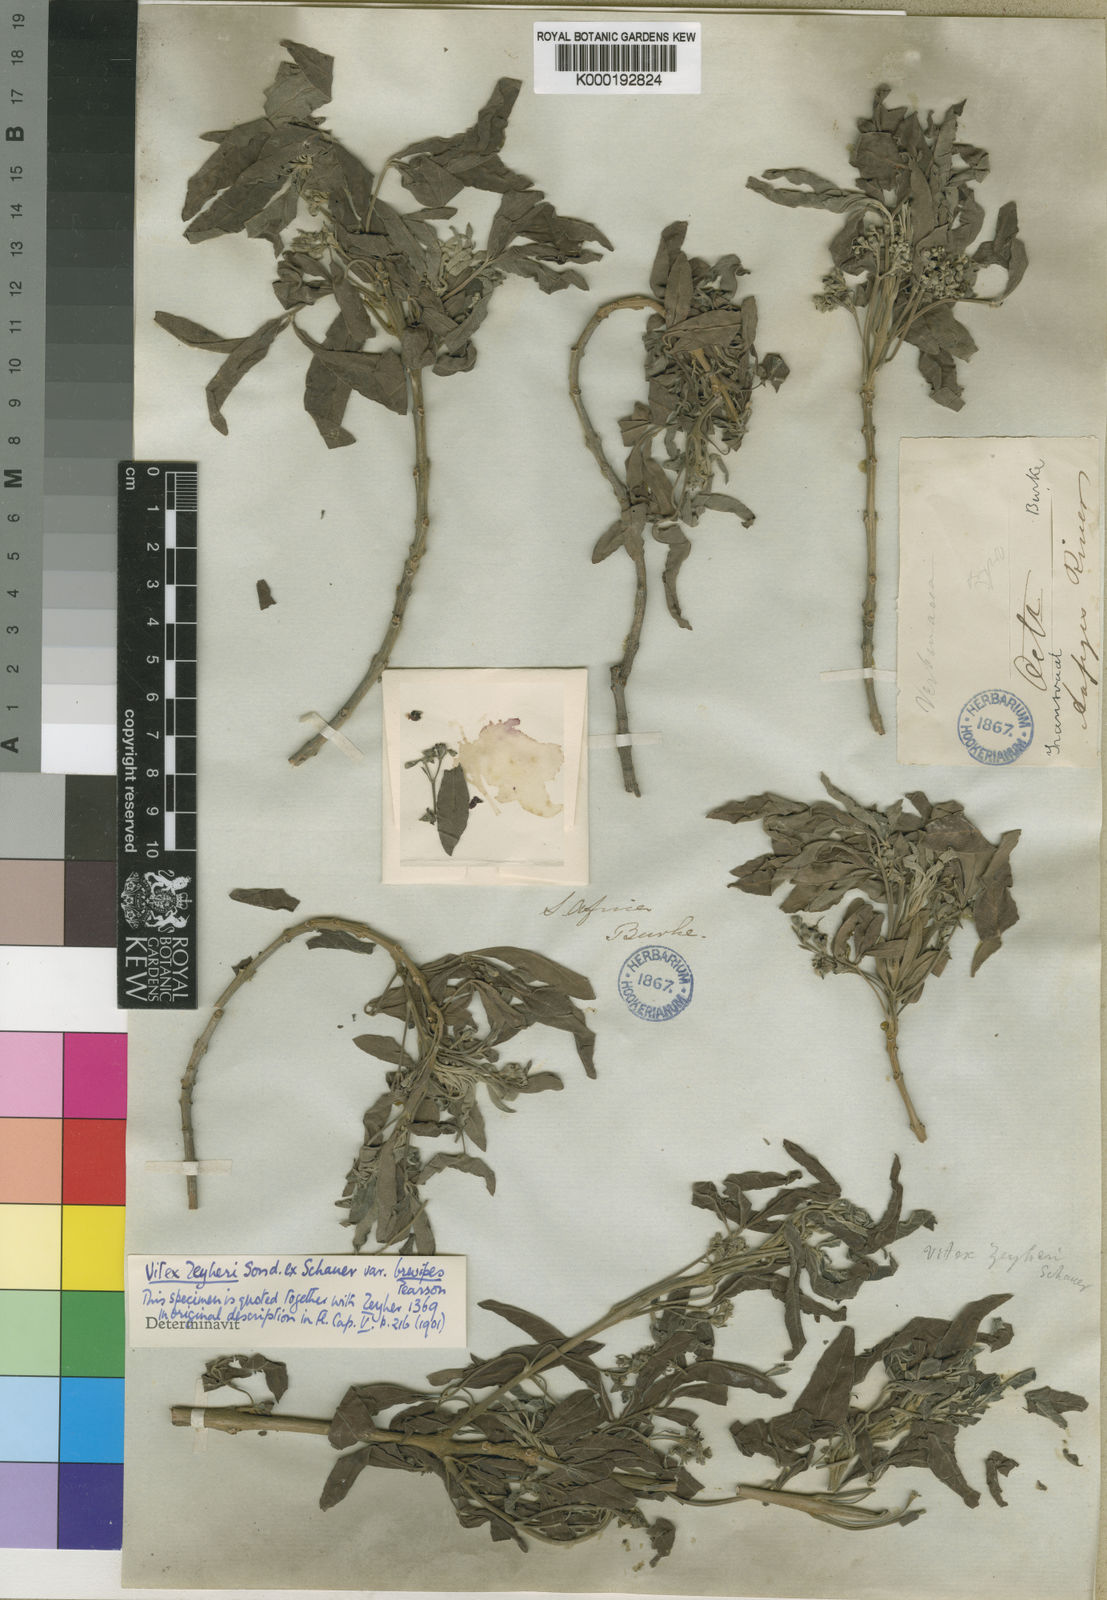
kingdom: Plantae
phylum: Tracheophyta
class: Magnoliopsida
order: Lamiales
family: Lamiaceae
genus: Vitex
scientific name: Vitex zeyheri
